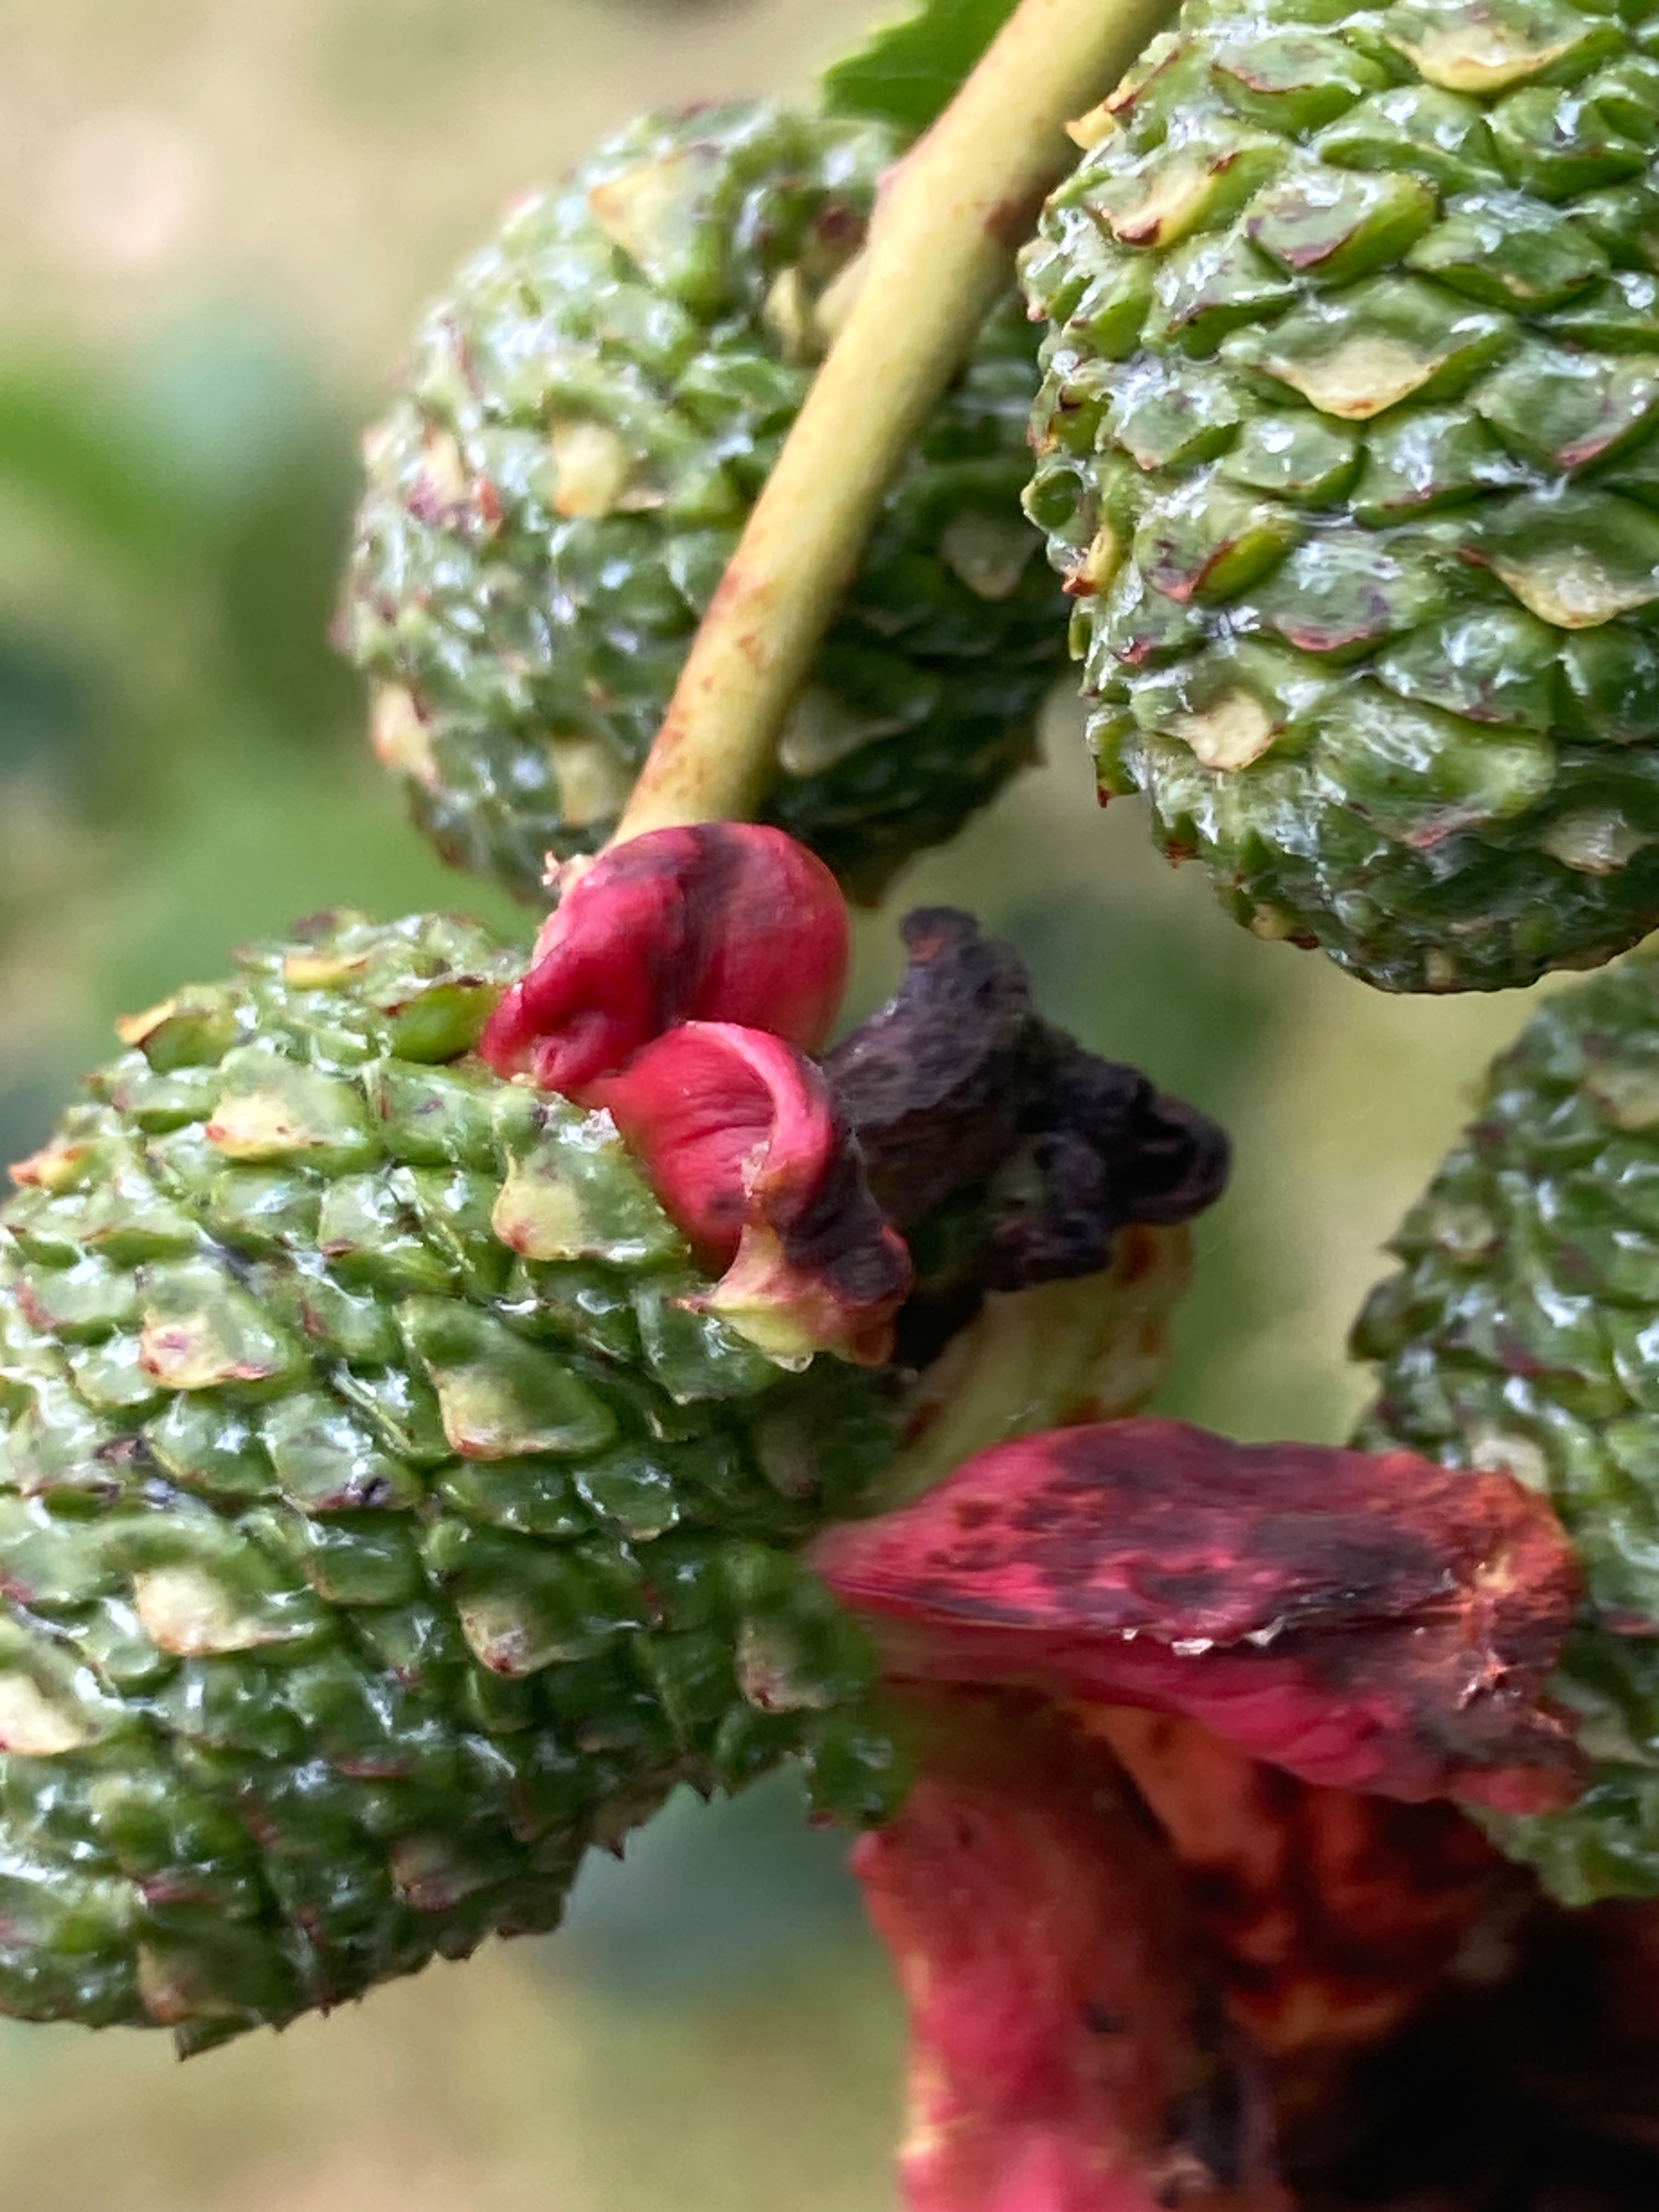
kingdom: Fungi
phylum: Ascomycota
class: Taphrinomycetes
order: Taphrinales
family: Taphrinaceae
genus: Taphrina
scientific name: Taphrina alni
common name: Alder tongue
